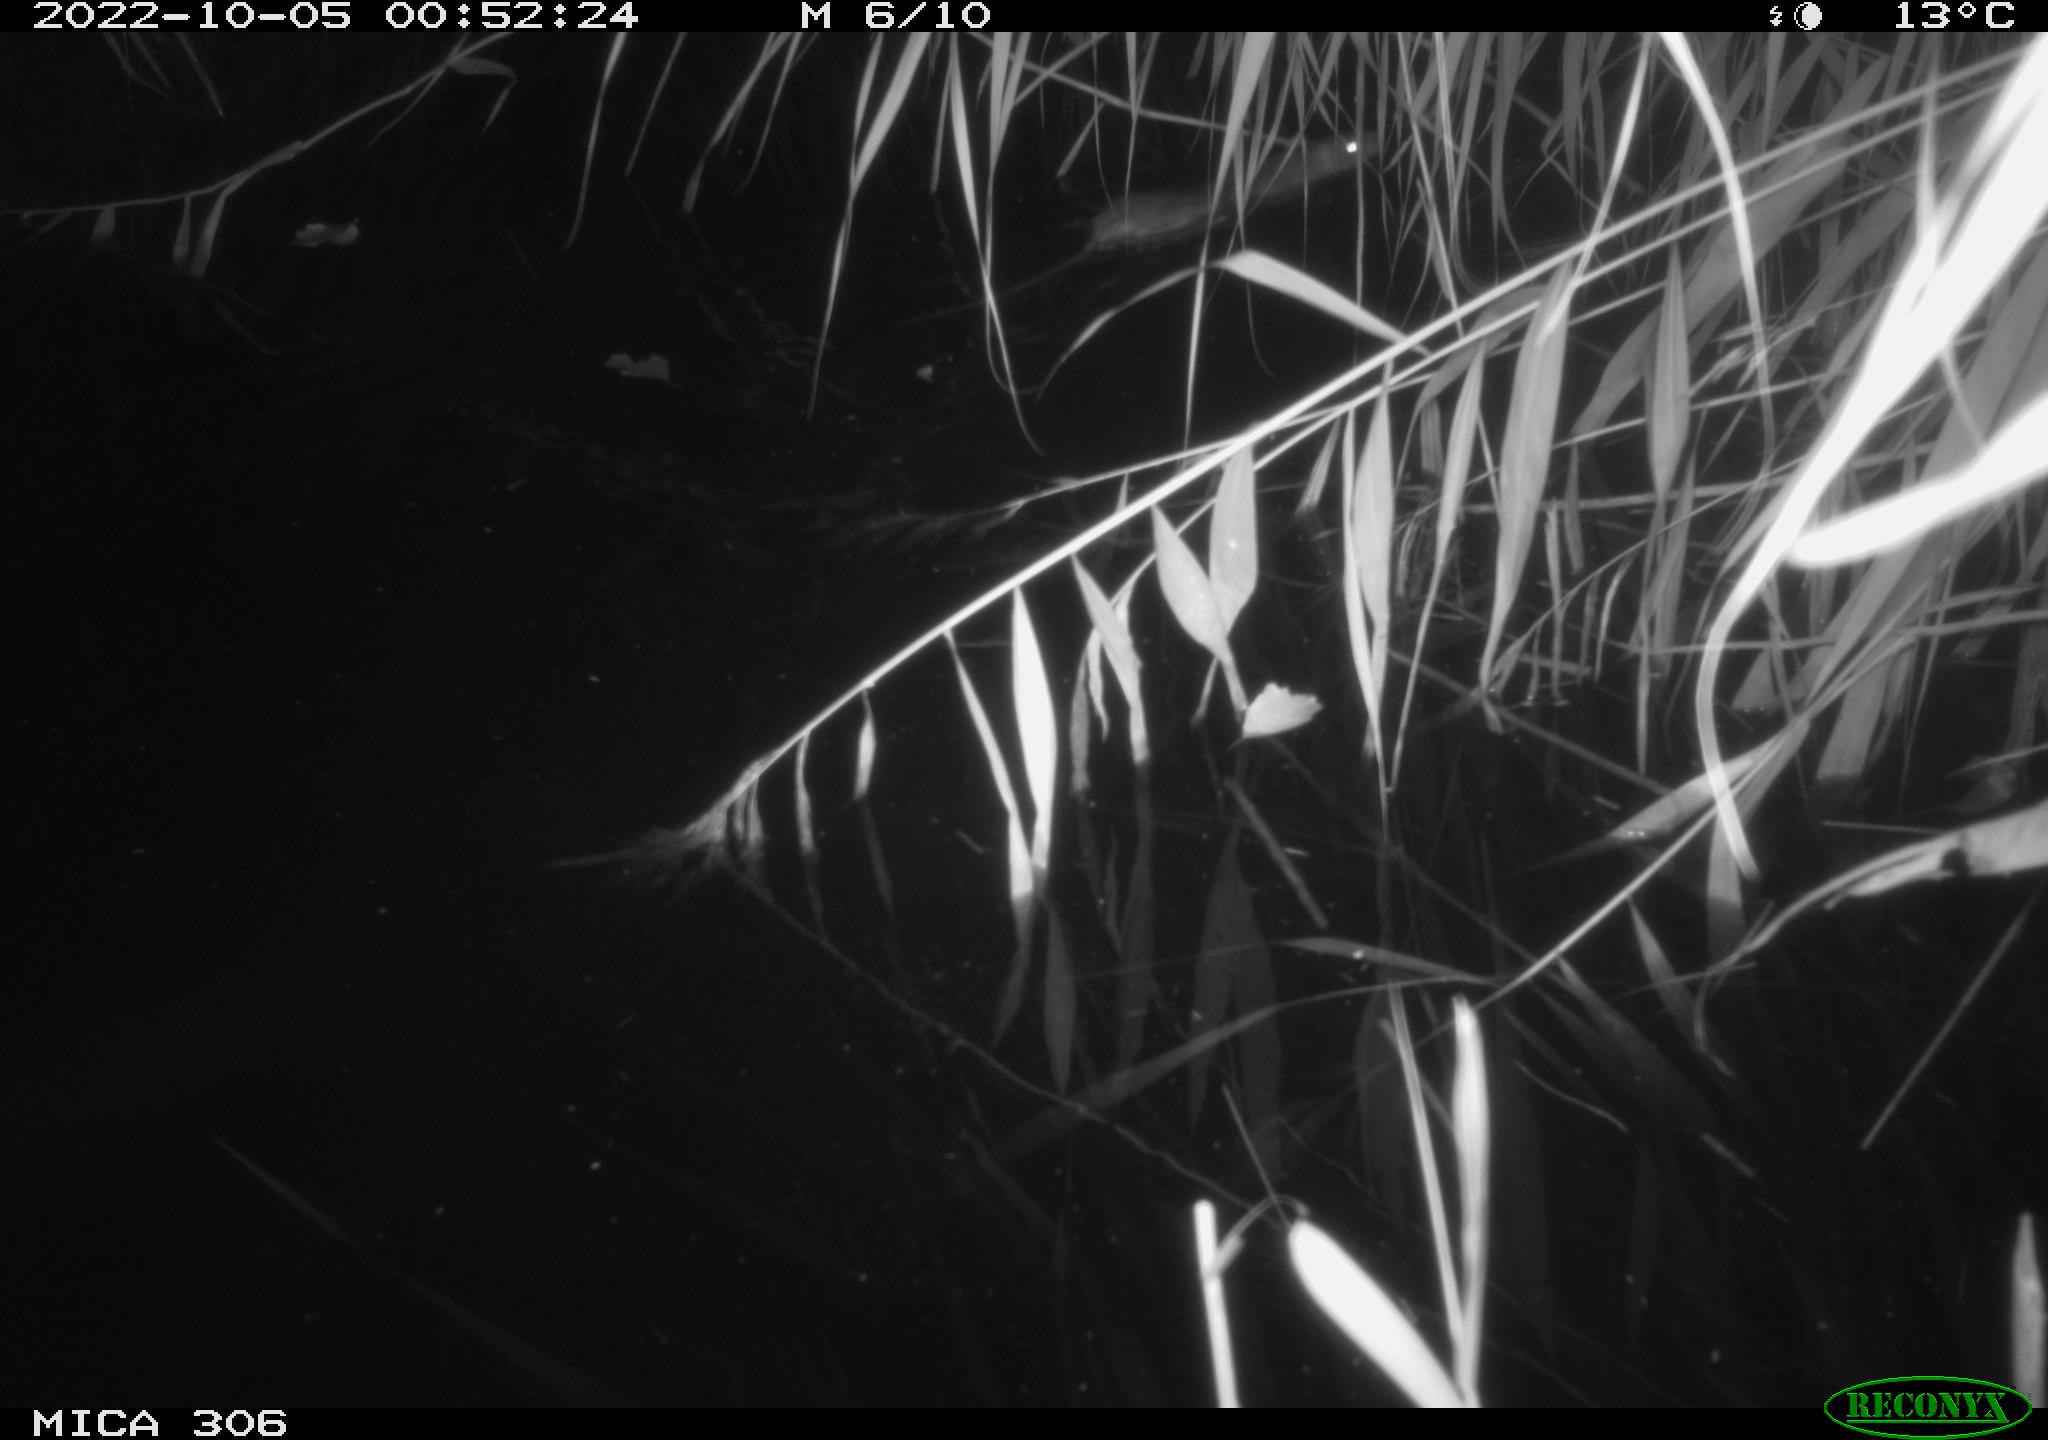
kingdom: Animalia
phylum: Chordata
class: Mammalia
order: Rodentia
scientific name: Rodentia
